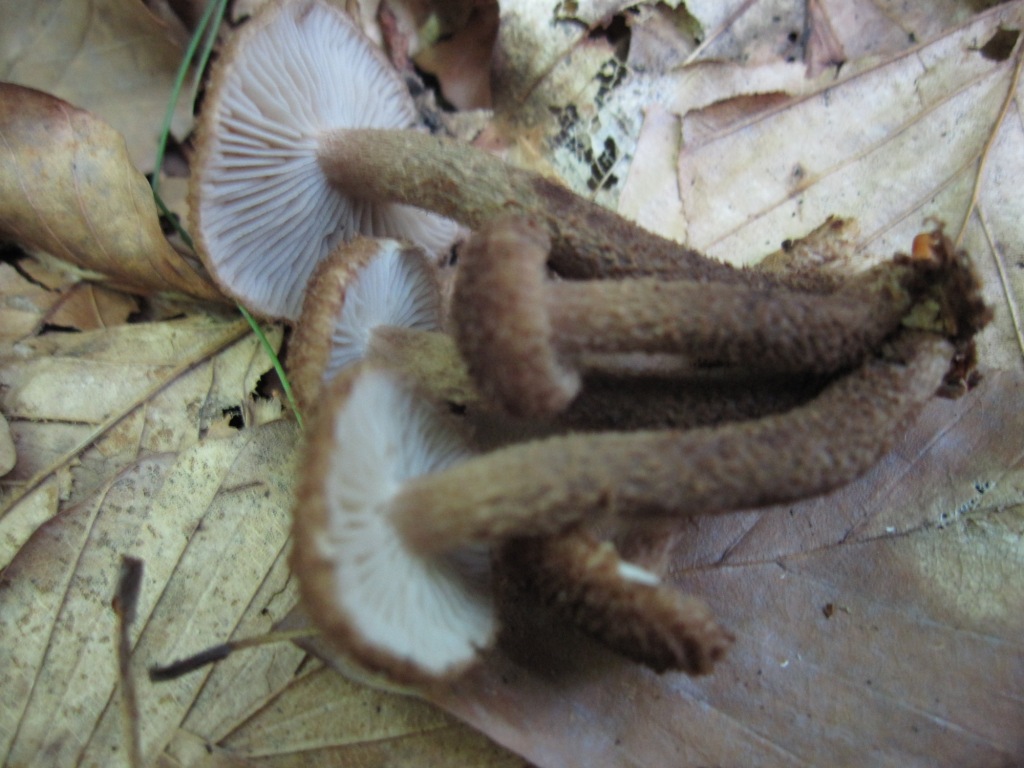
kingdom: Fungi
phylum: Basidiomycota
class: Agaricomycetes
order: Agaricales
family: Inocybaceae
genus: Inocybe
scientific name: Inocybe stellatospora
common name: spidsskællet trævlhat
